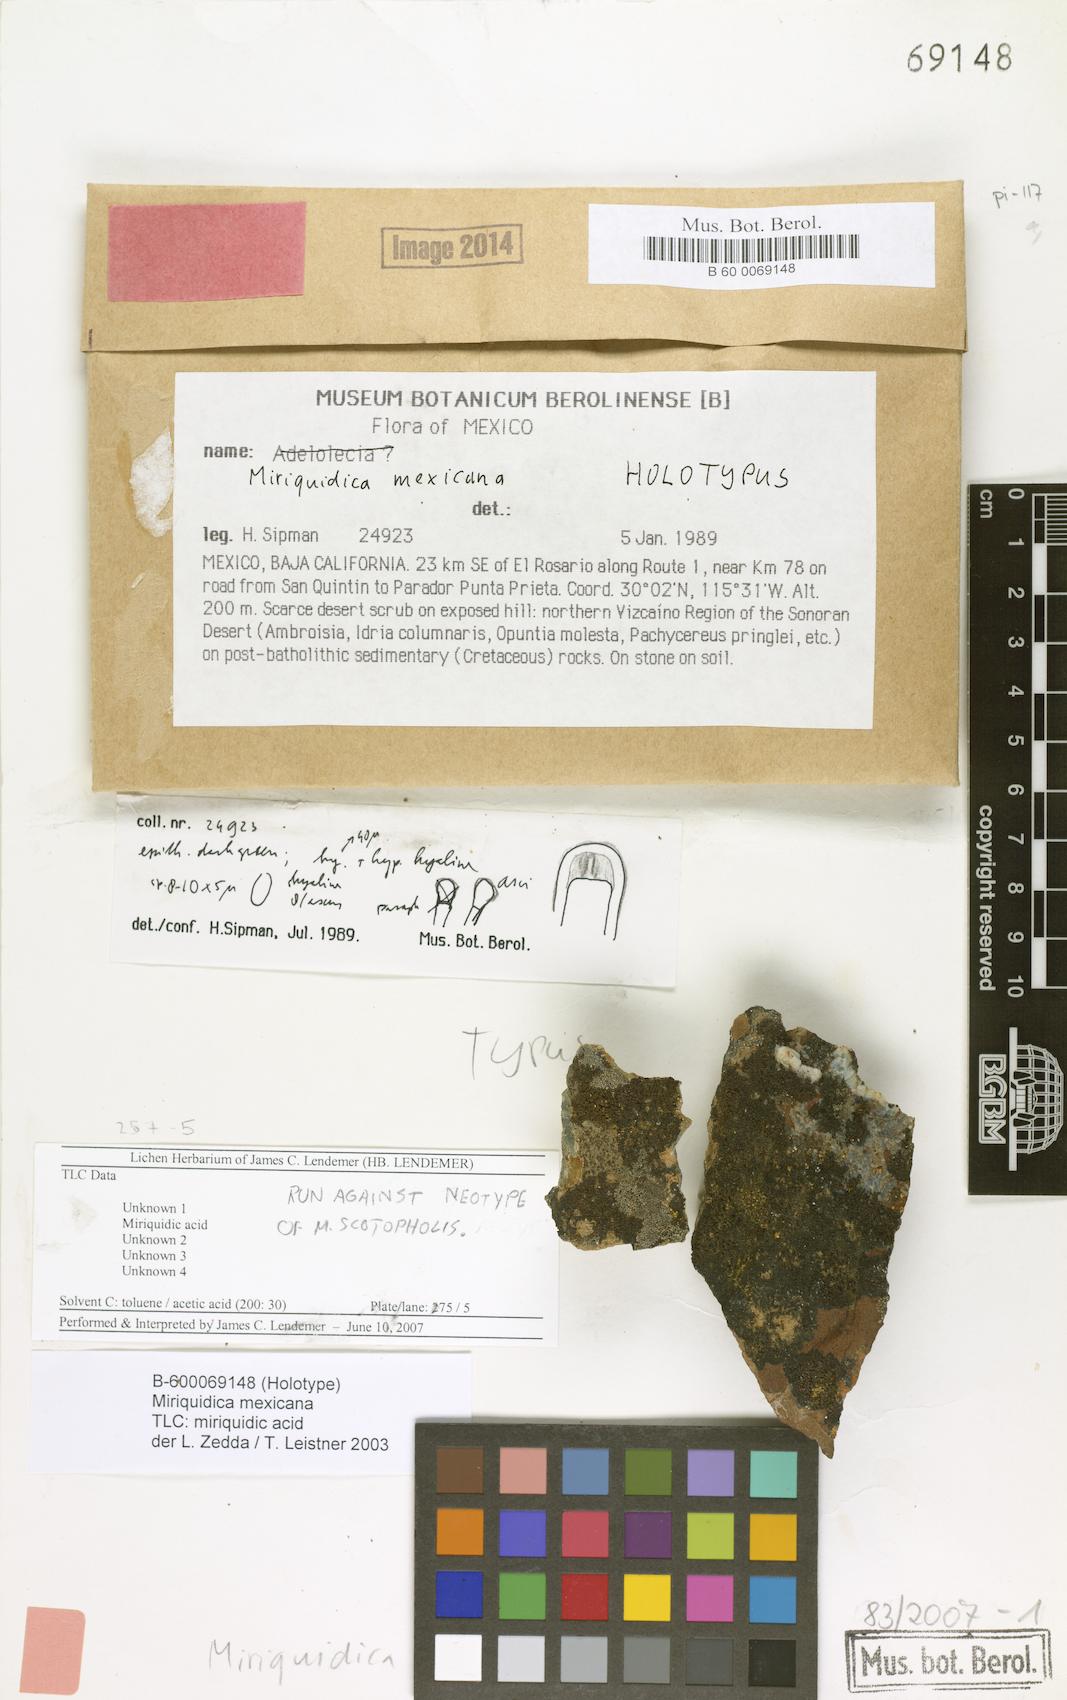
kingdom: Fungi
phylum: Ascomycota
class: Lecanoromycetes
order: Lecanorales
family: Lecanoraceae
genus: Miriquidica
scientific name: Miriquidica
